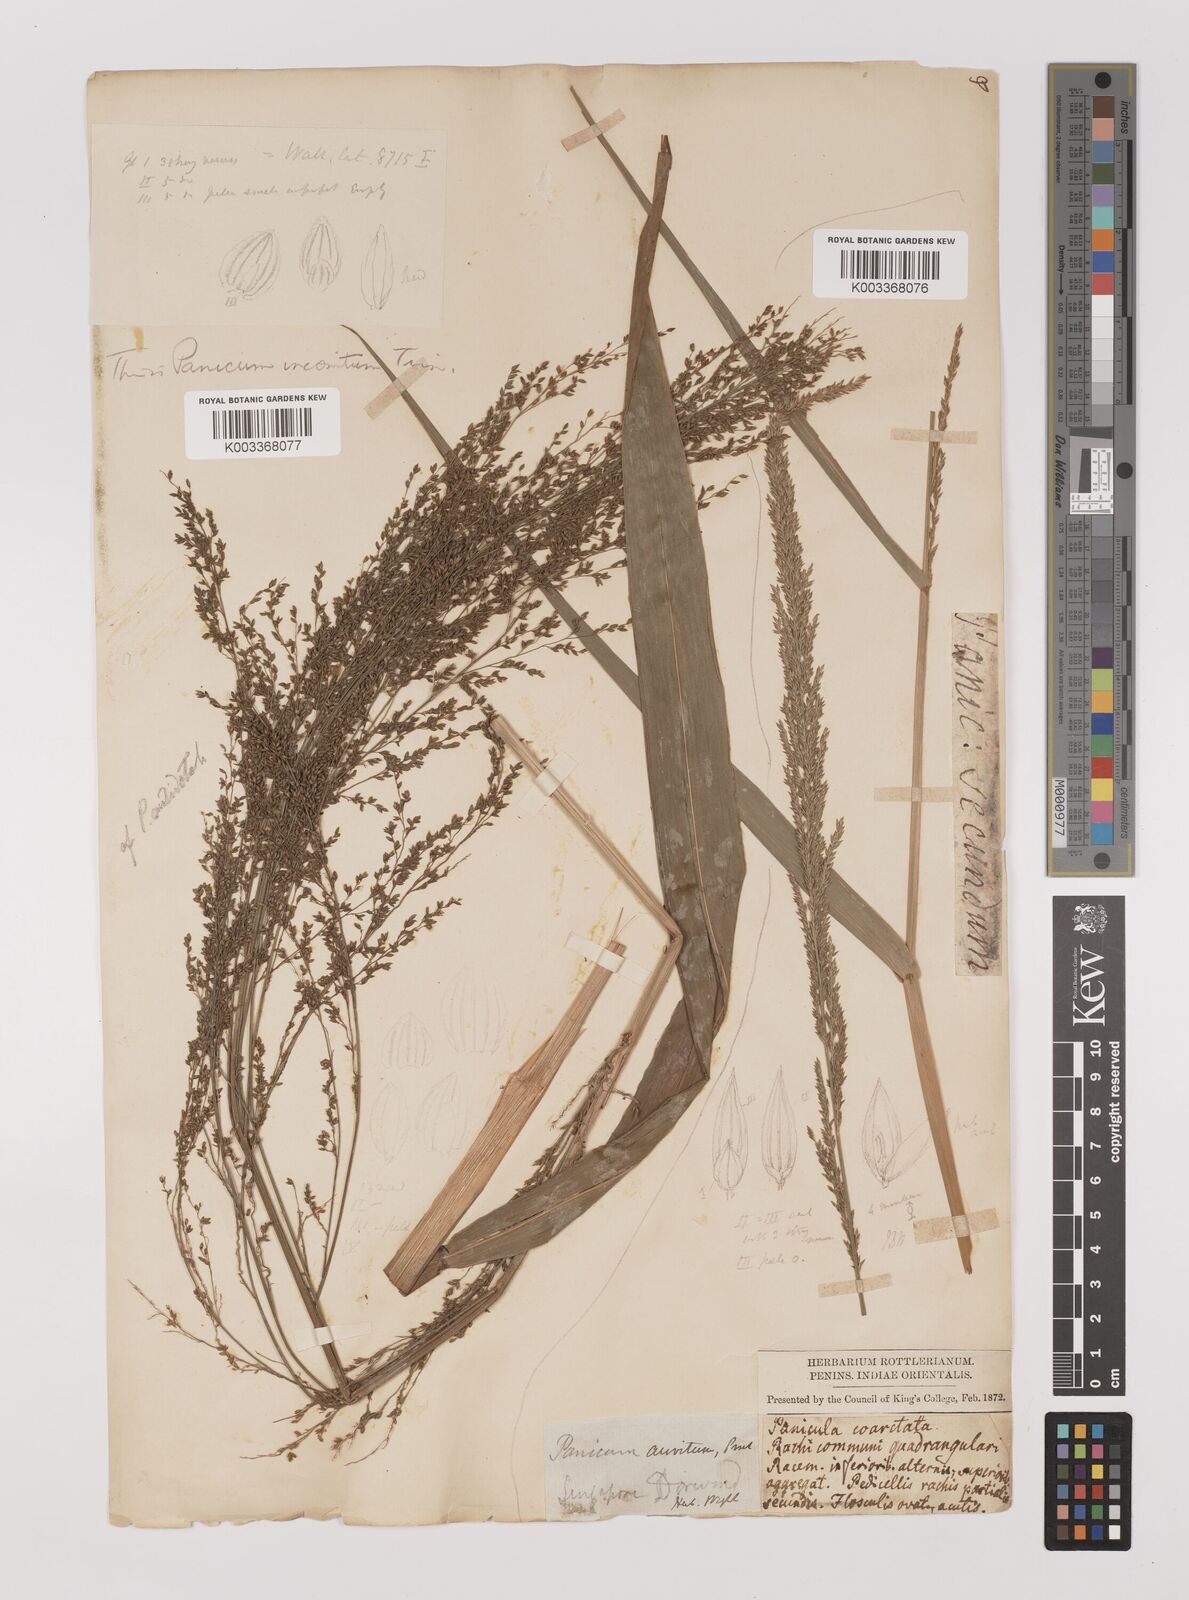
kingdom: Plantae
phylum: Tracheophyta
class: Liliopsida
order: Poales
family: Poaceae
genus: Oedochloa
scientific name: Oedochloa minarum
